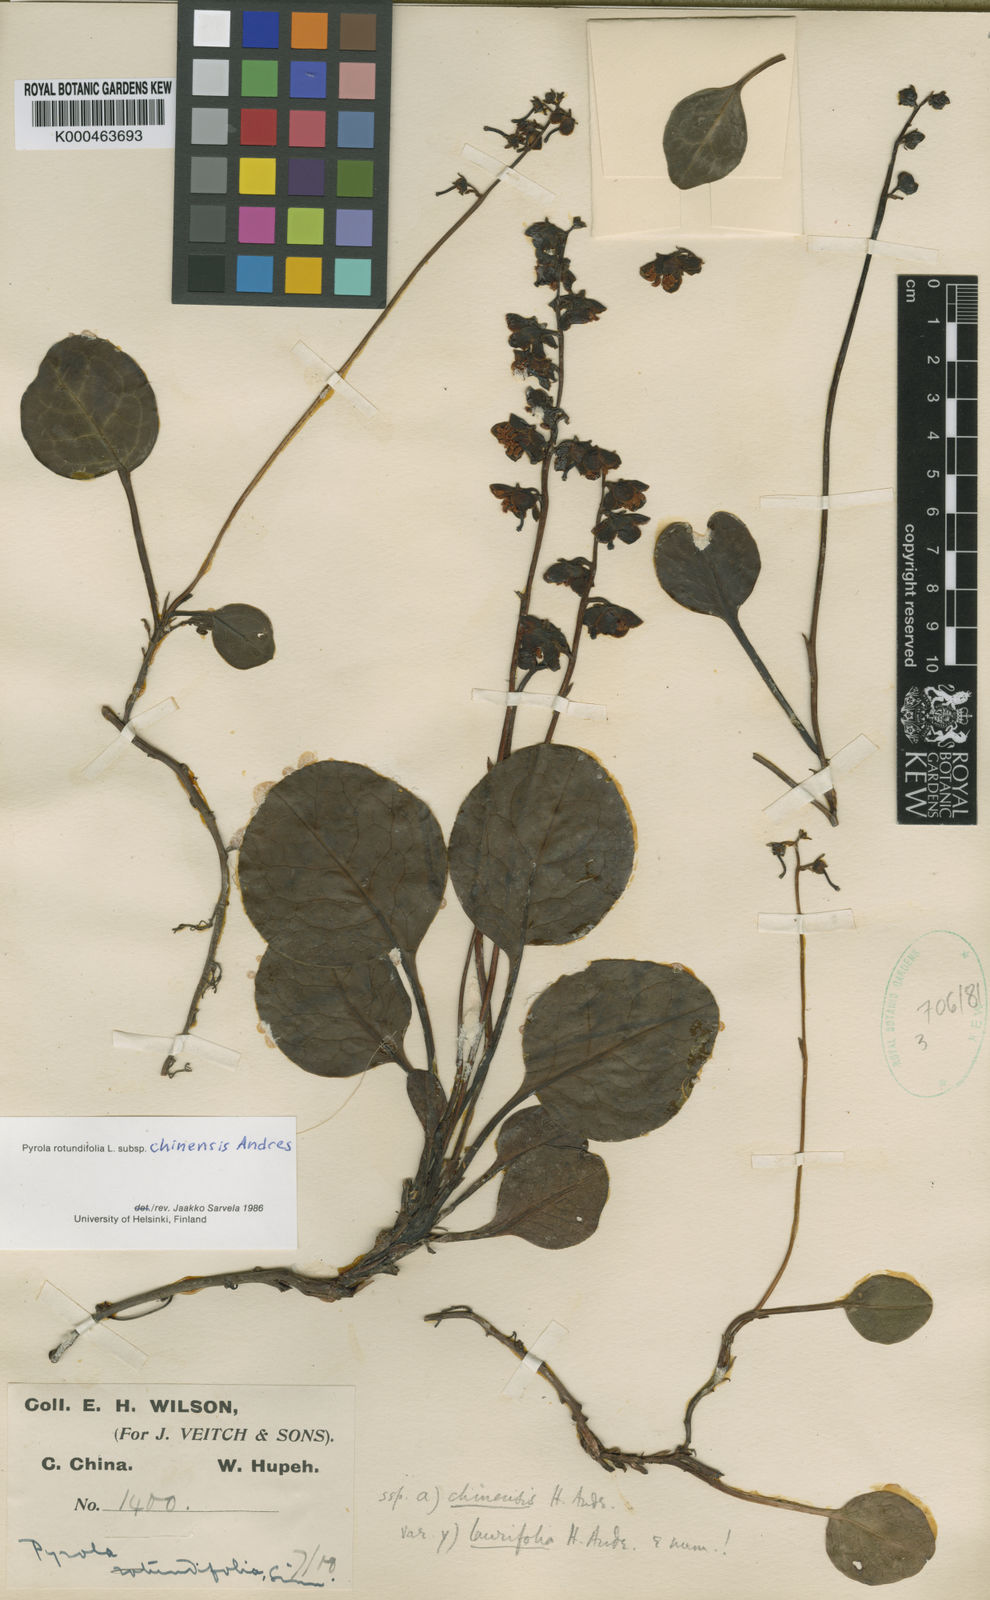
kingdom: Plantae
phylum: Tracheophyta
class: Magnoliopsida
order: Ericales
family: Ericaceae
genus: Pyrola
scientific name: Pyrola rotundifolia
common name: Round-leaved wintergreen
